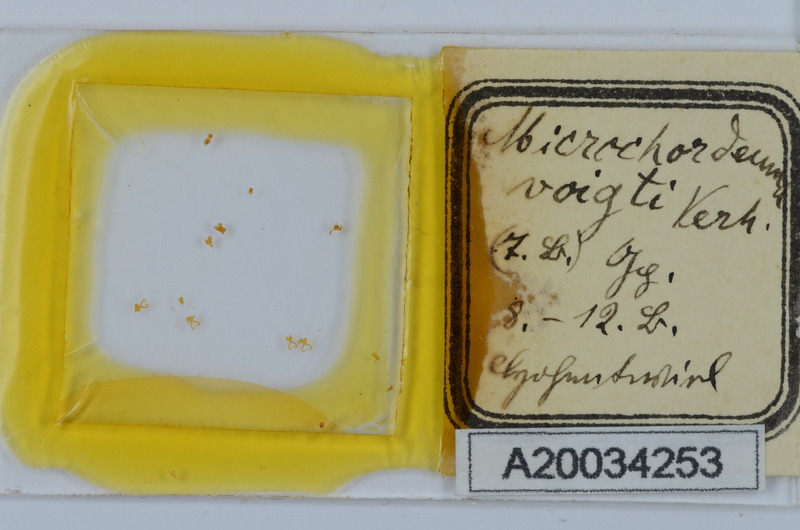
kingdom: Animalia
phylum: Arthropoda
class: Diplopoda
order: Chordeumatida
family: Chordeumatidae
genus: Melogona
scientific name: Melogona voigtii
